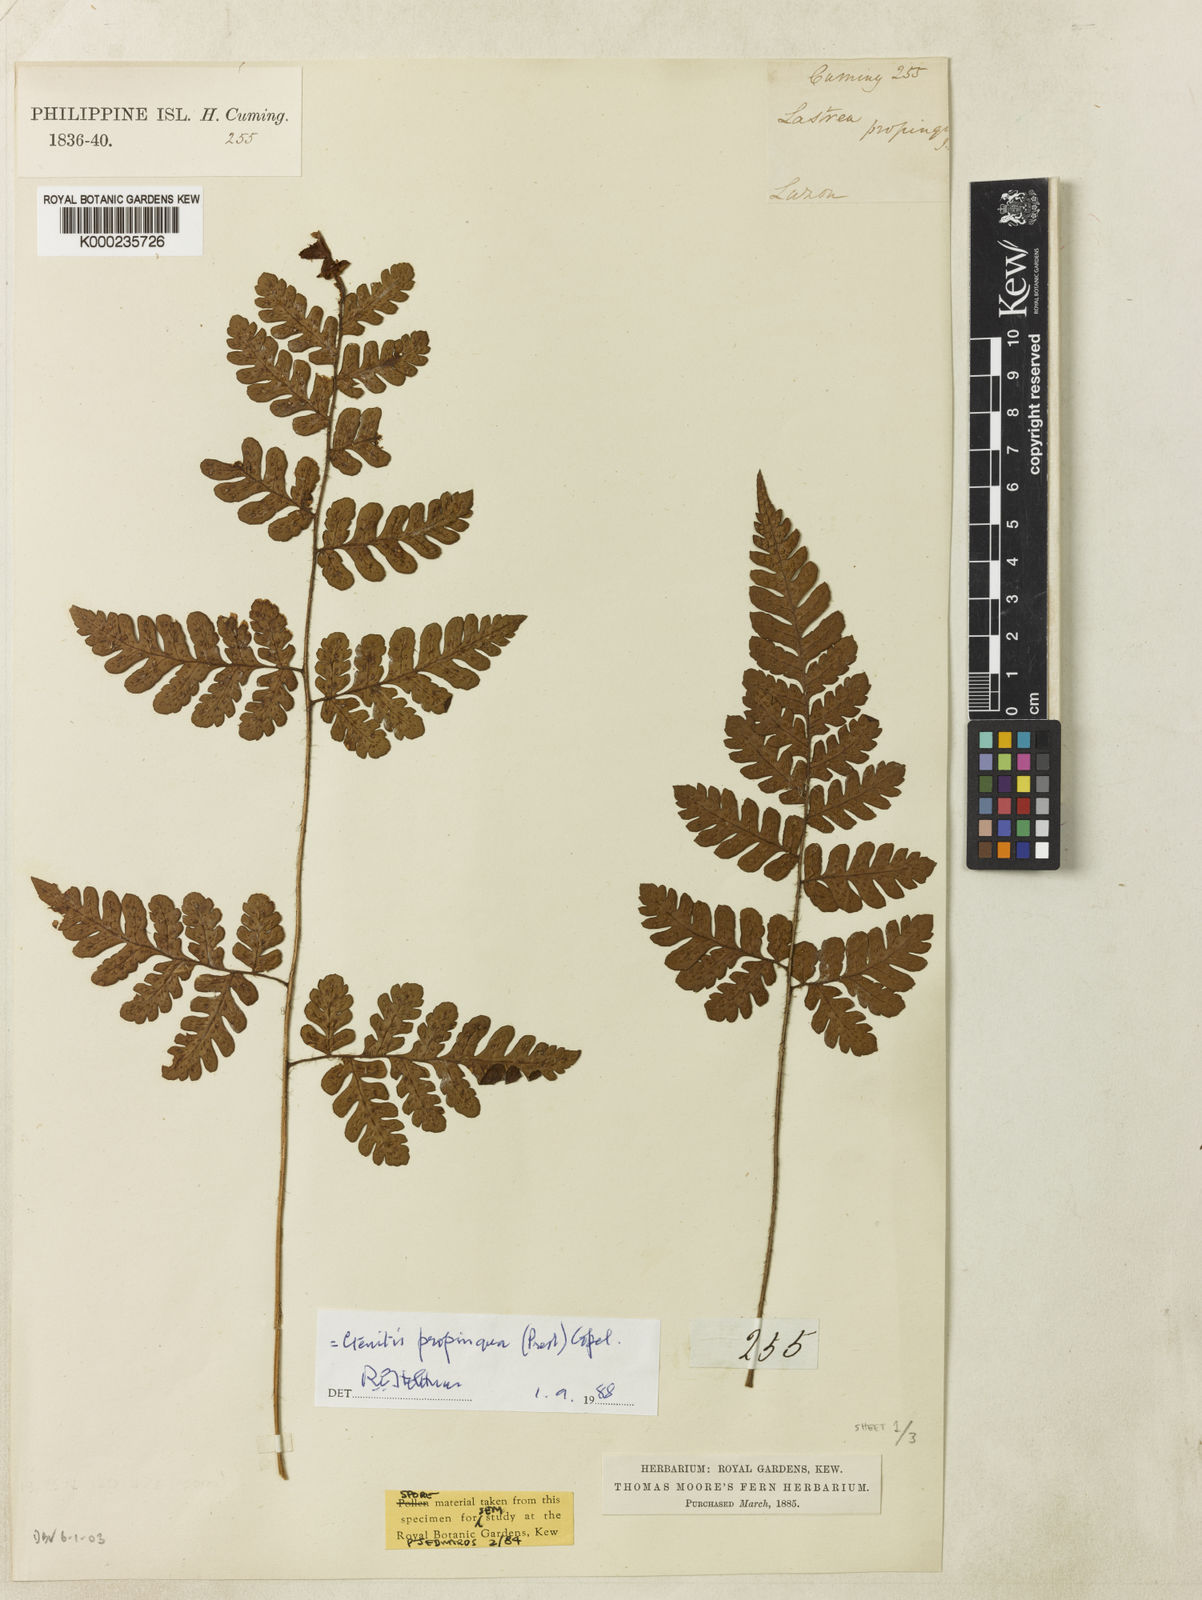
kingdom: Plantae
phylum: Tracheophyta
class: Polypodiopsida
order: Polypodiales
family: Dryopteridaceae
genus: Ctenitis
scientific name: Ctenitis propinqua
